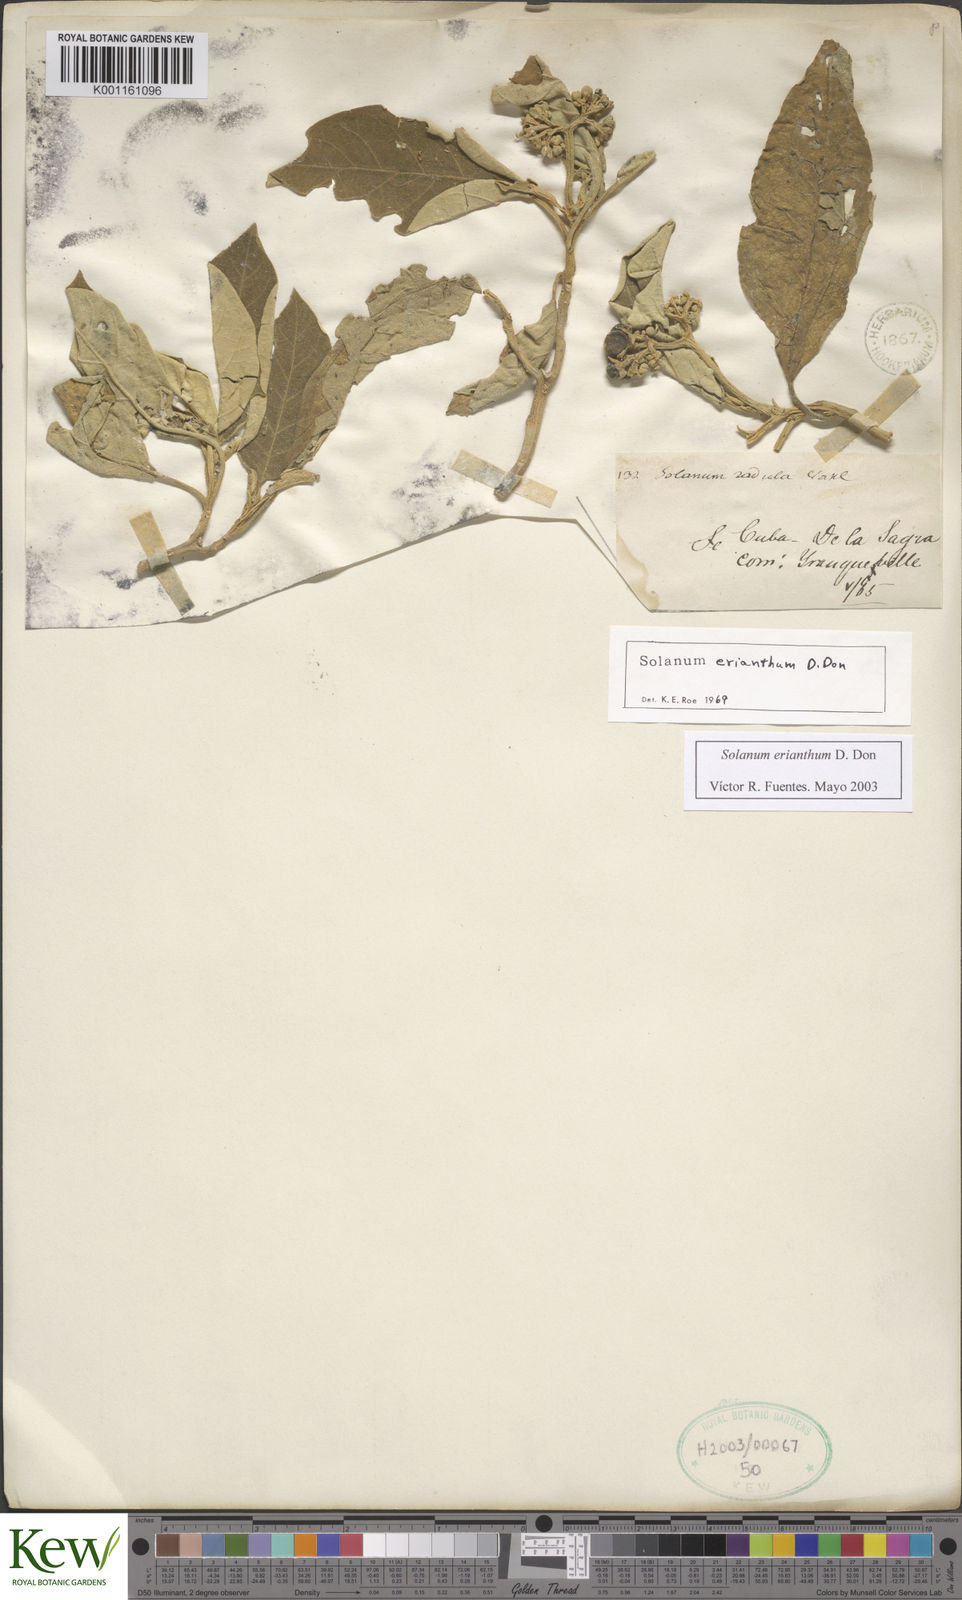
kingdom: Plantae
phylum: Tracheophyta
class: Magnoliopsida
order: Solanales
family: Solanaceae
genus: Solanum
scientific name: Solanum erianthum
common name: Tobacco-tree
